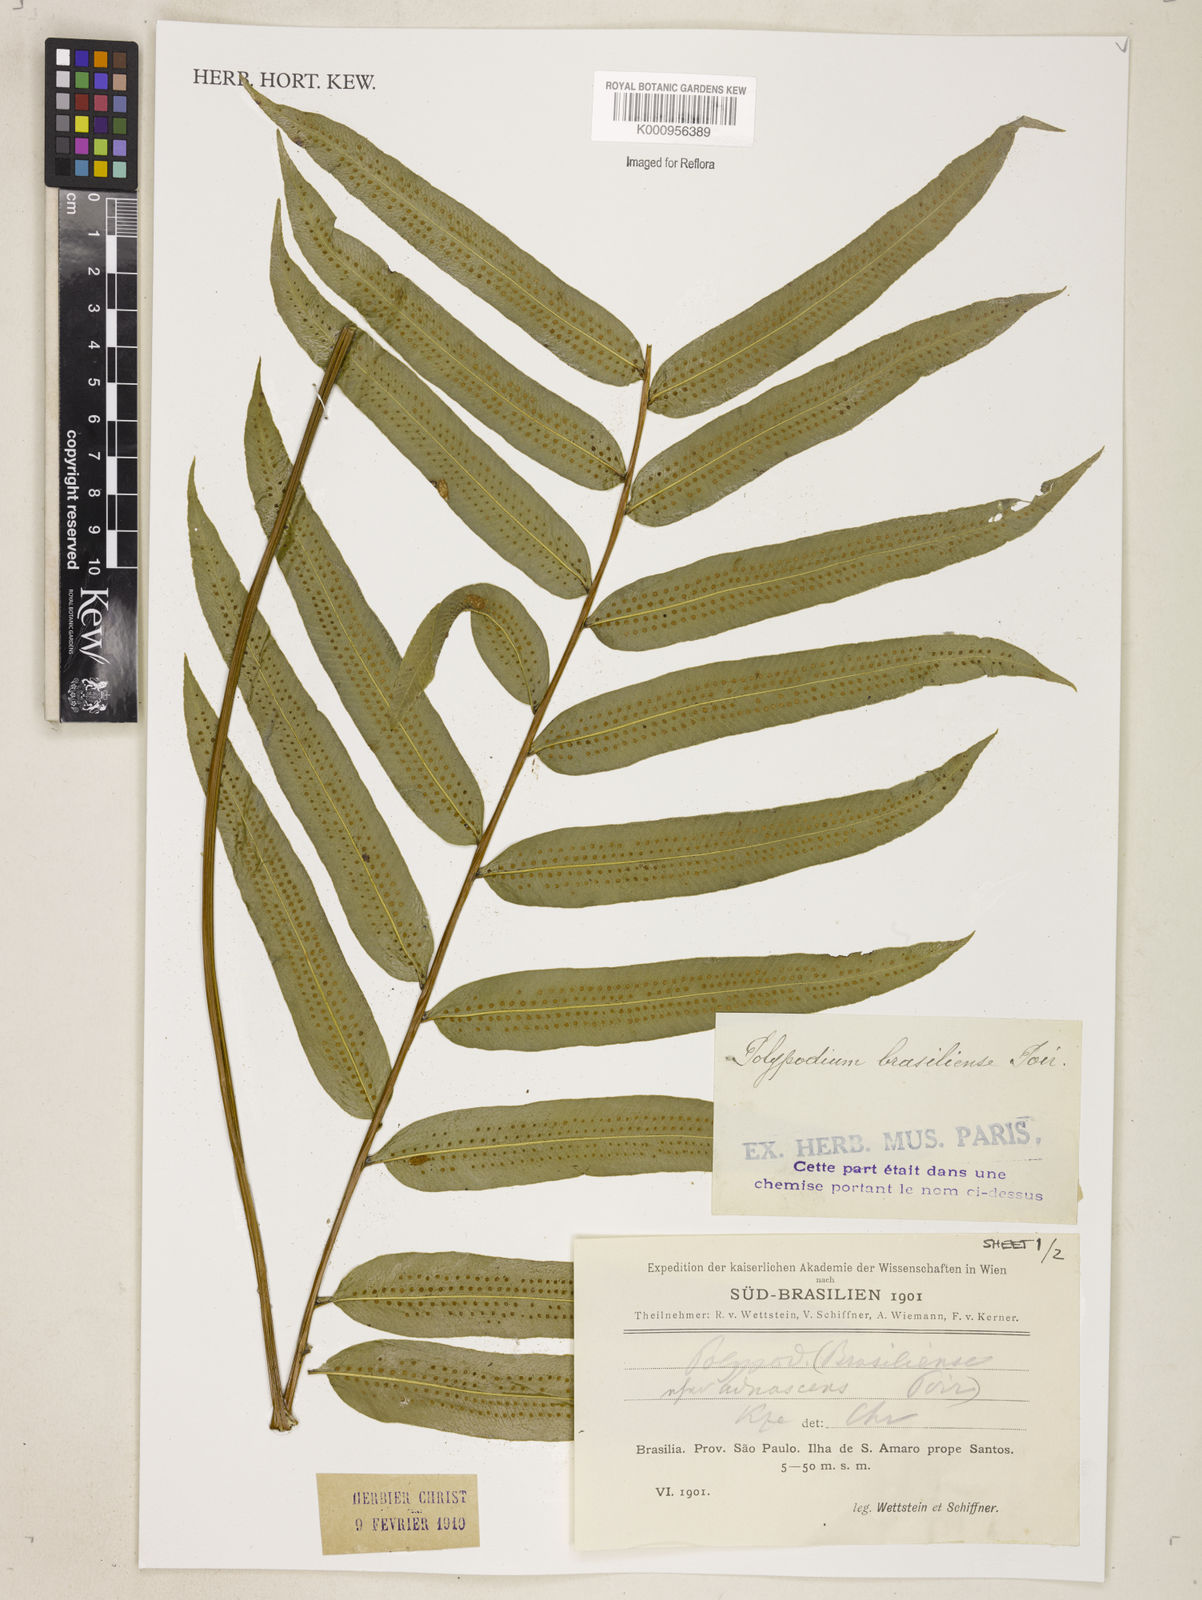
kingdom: Plantae
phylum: Tracheophyta
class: Polypodiopsida
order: Polypodiales
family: Polypodiaceae
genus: Serpocaulon
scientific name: Serpocaulon triseriale
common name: Angle-vein fern
